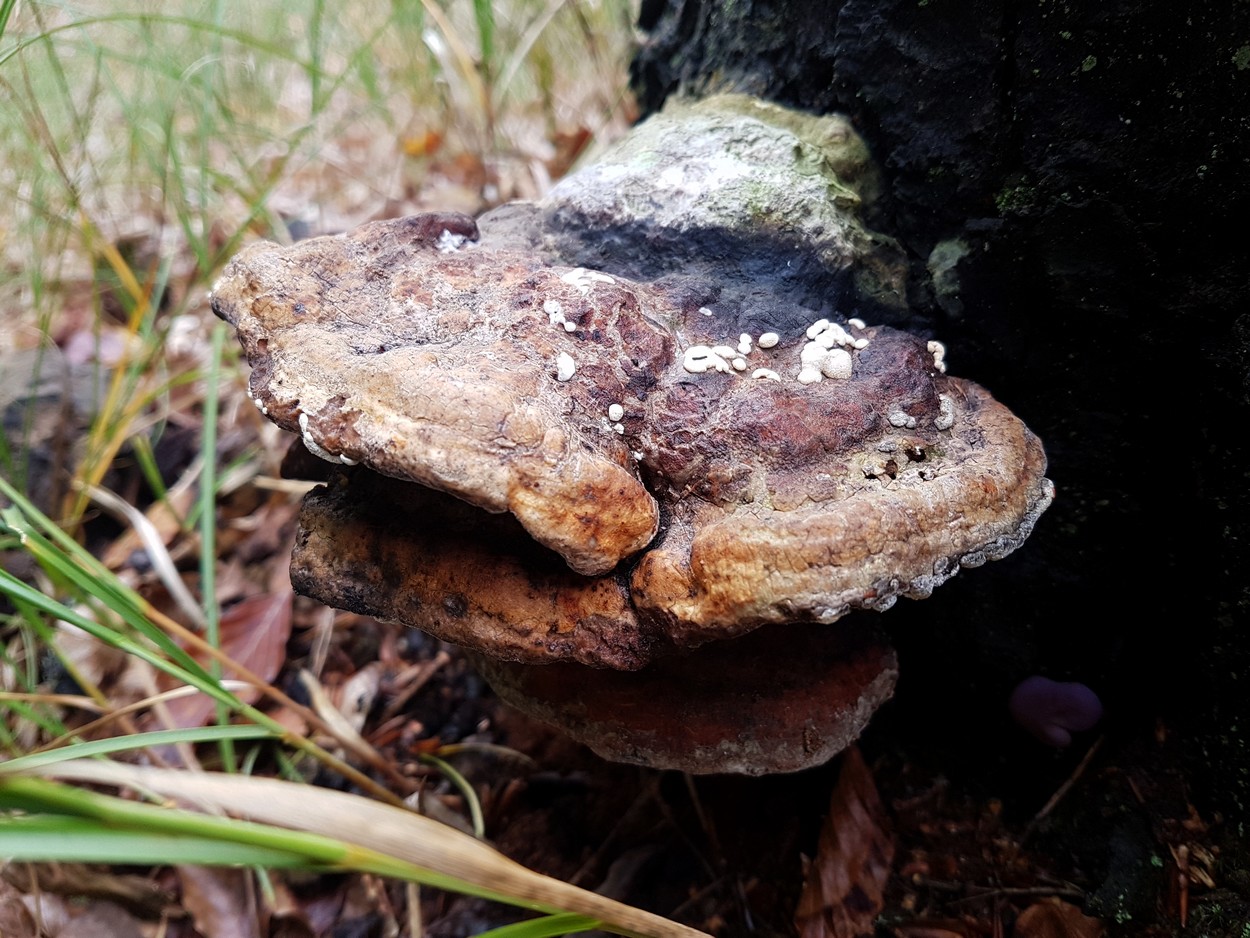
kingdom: Fungi
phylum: Ascomycota
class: Sordariomycetes
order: Hypocreales
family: Hypocreaceae
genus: Trichoderma
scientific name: Trichoderma pulvinatum
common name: snyltende kødkerne
